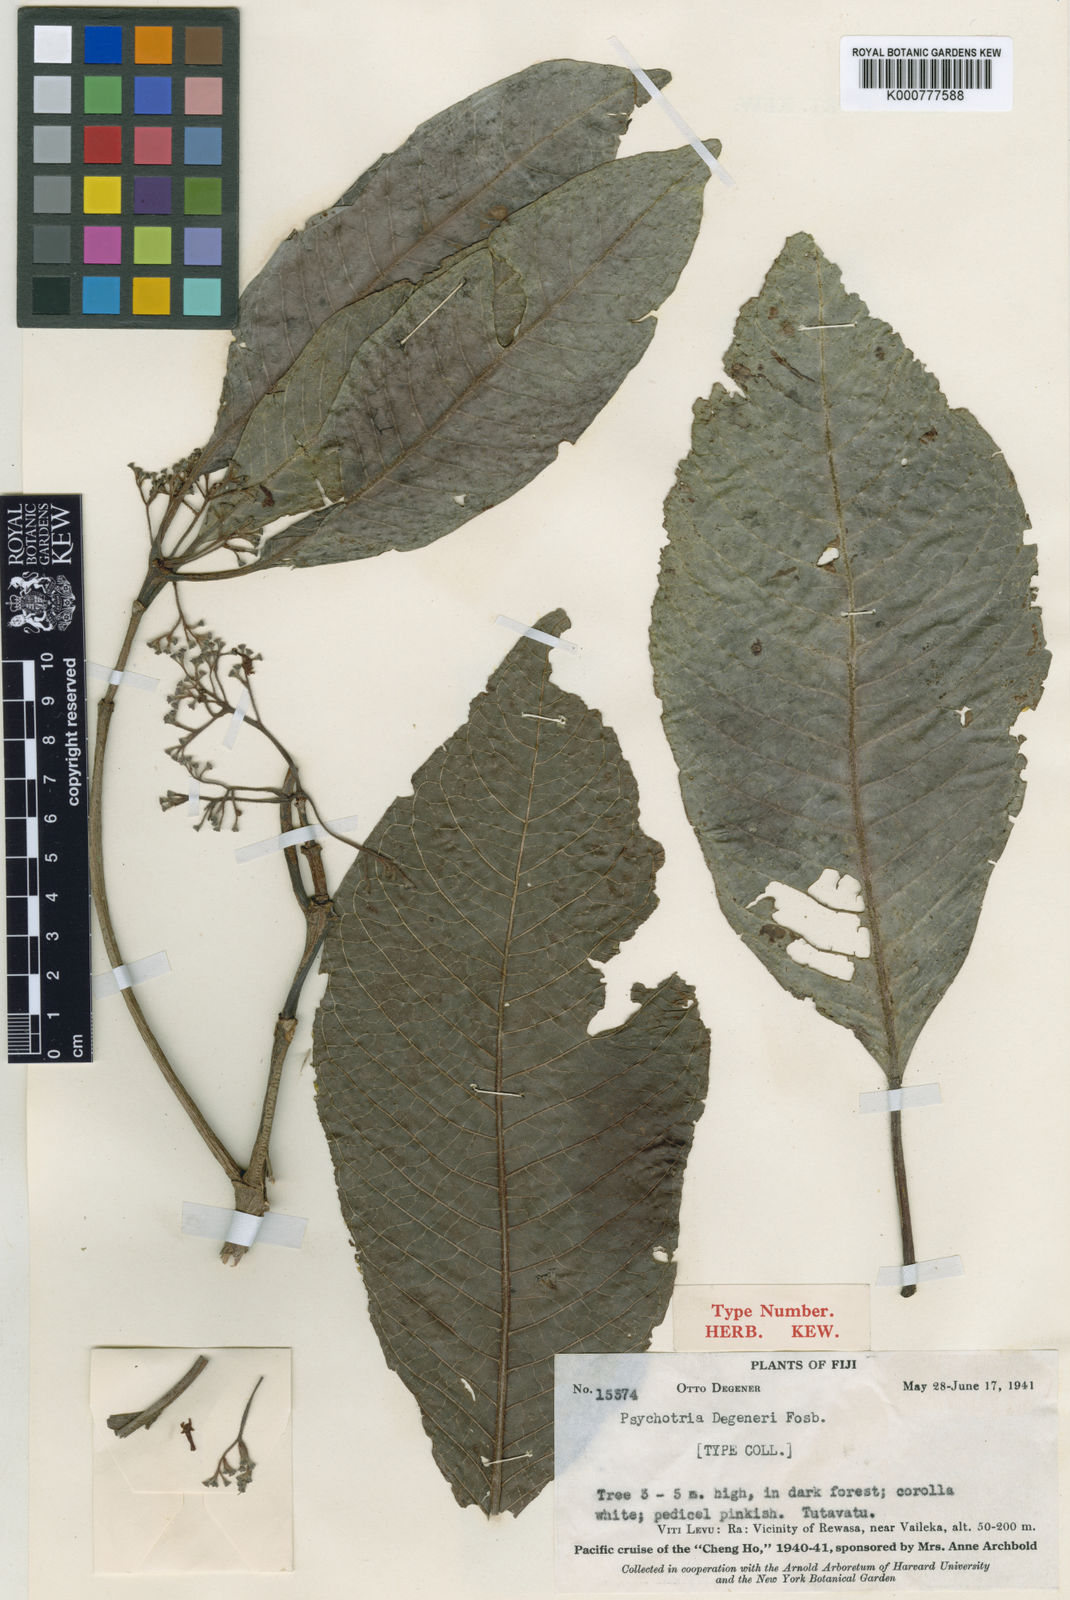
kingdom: Plantae
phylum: Tracheophyta
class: Magnoliopsida
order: Gentianales
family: Rubiaceae
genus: Psychotria
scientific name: Psychotria storckii
